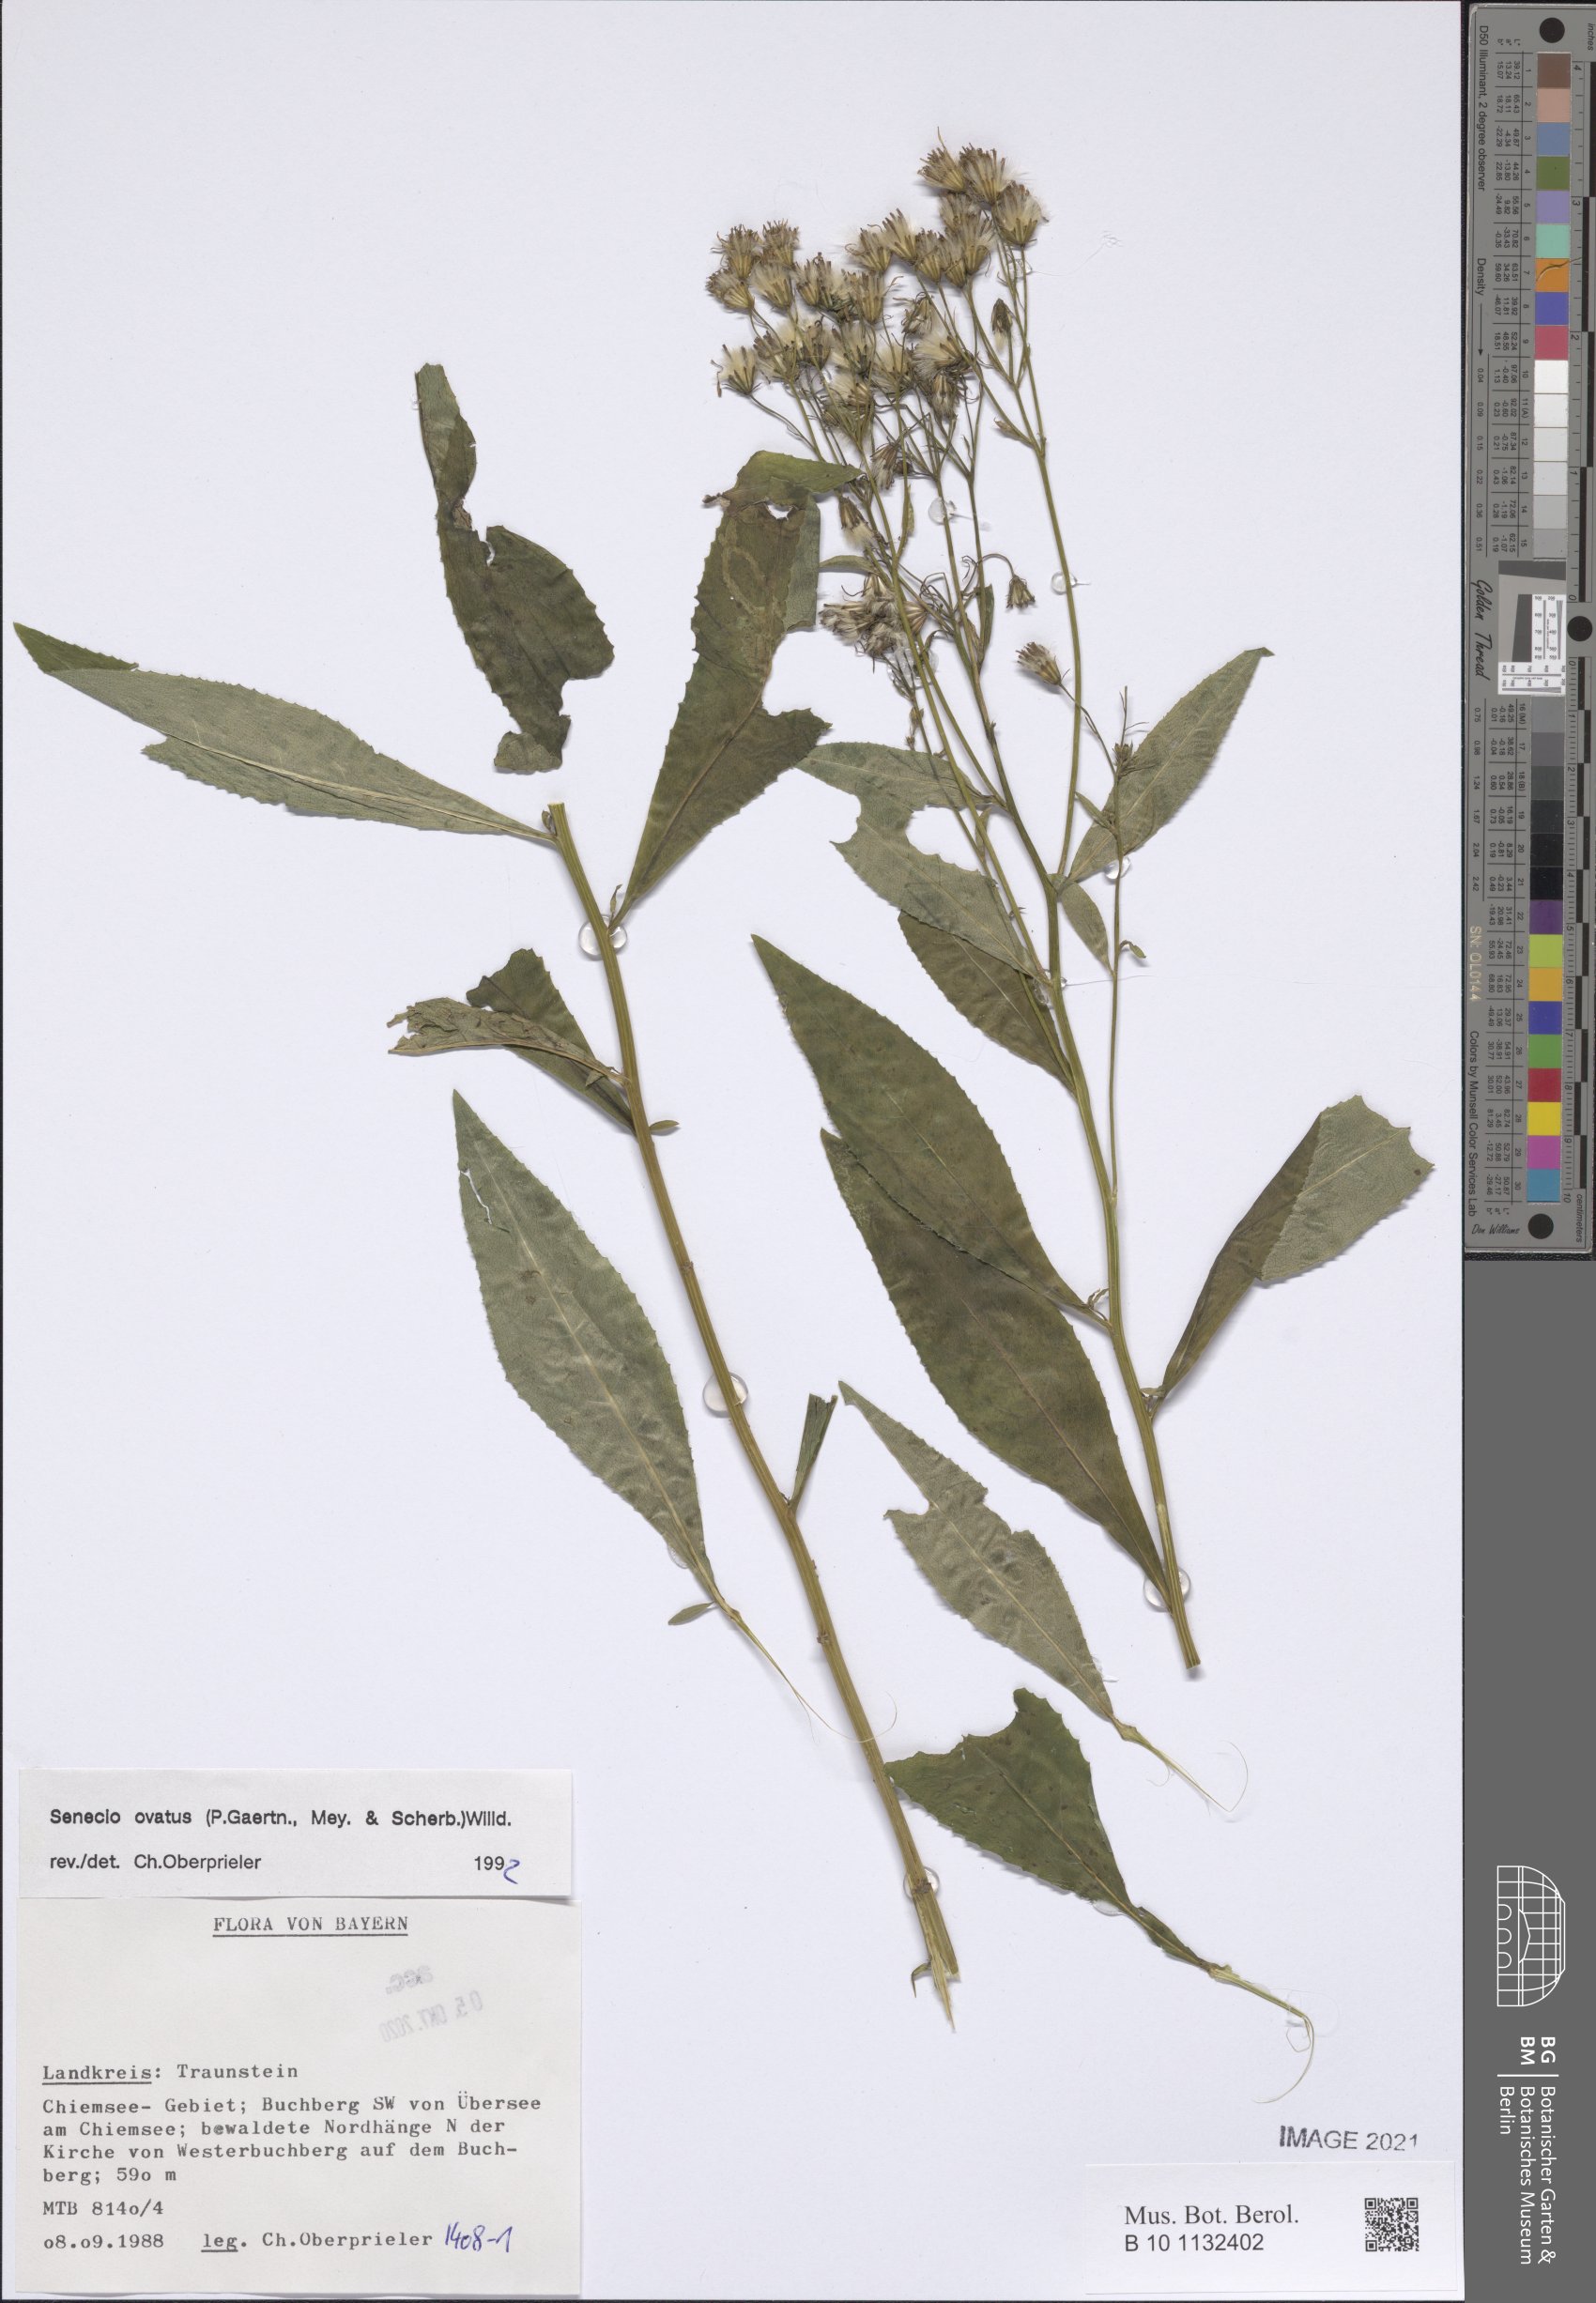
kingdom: Plantae
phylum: Tracheophyta
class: Magnoliopsida
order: Asterales
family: Asteraceae
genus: Senecio
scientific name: Senecio ovatus
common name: Wood ragwort
